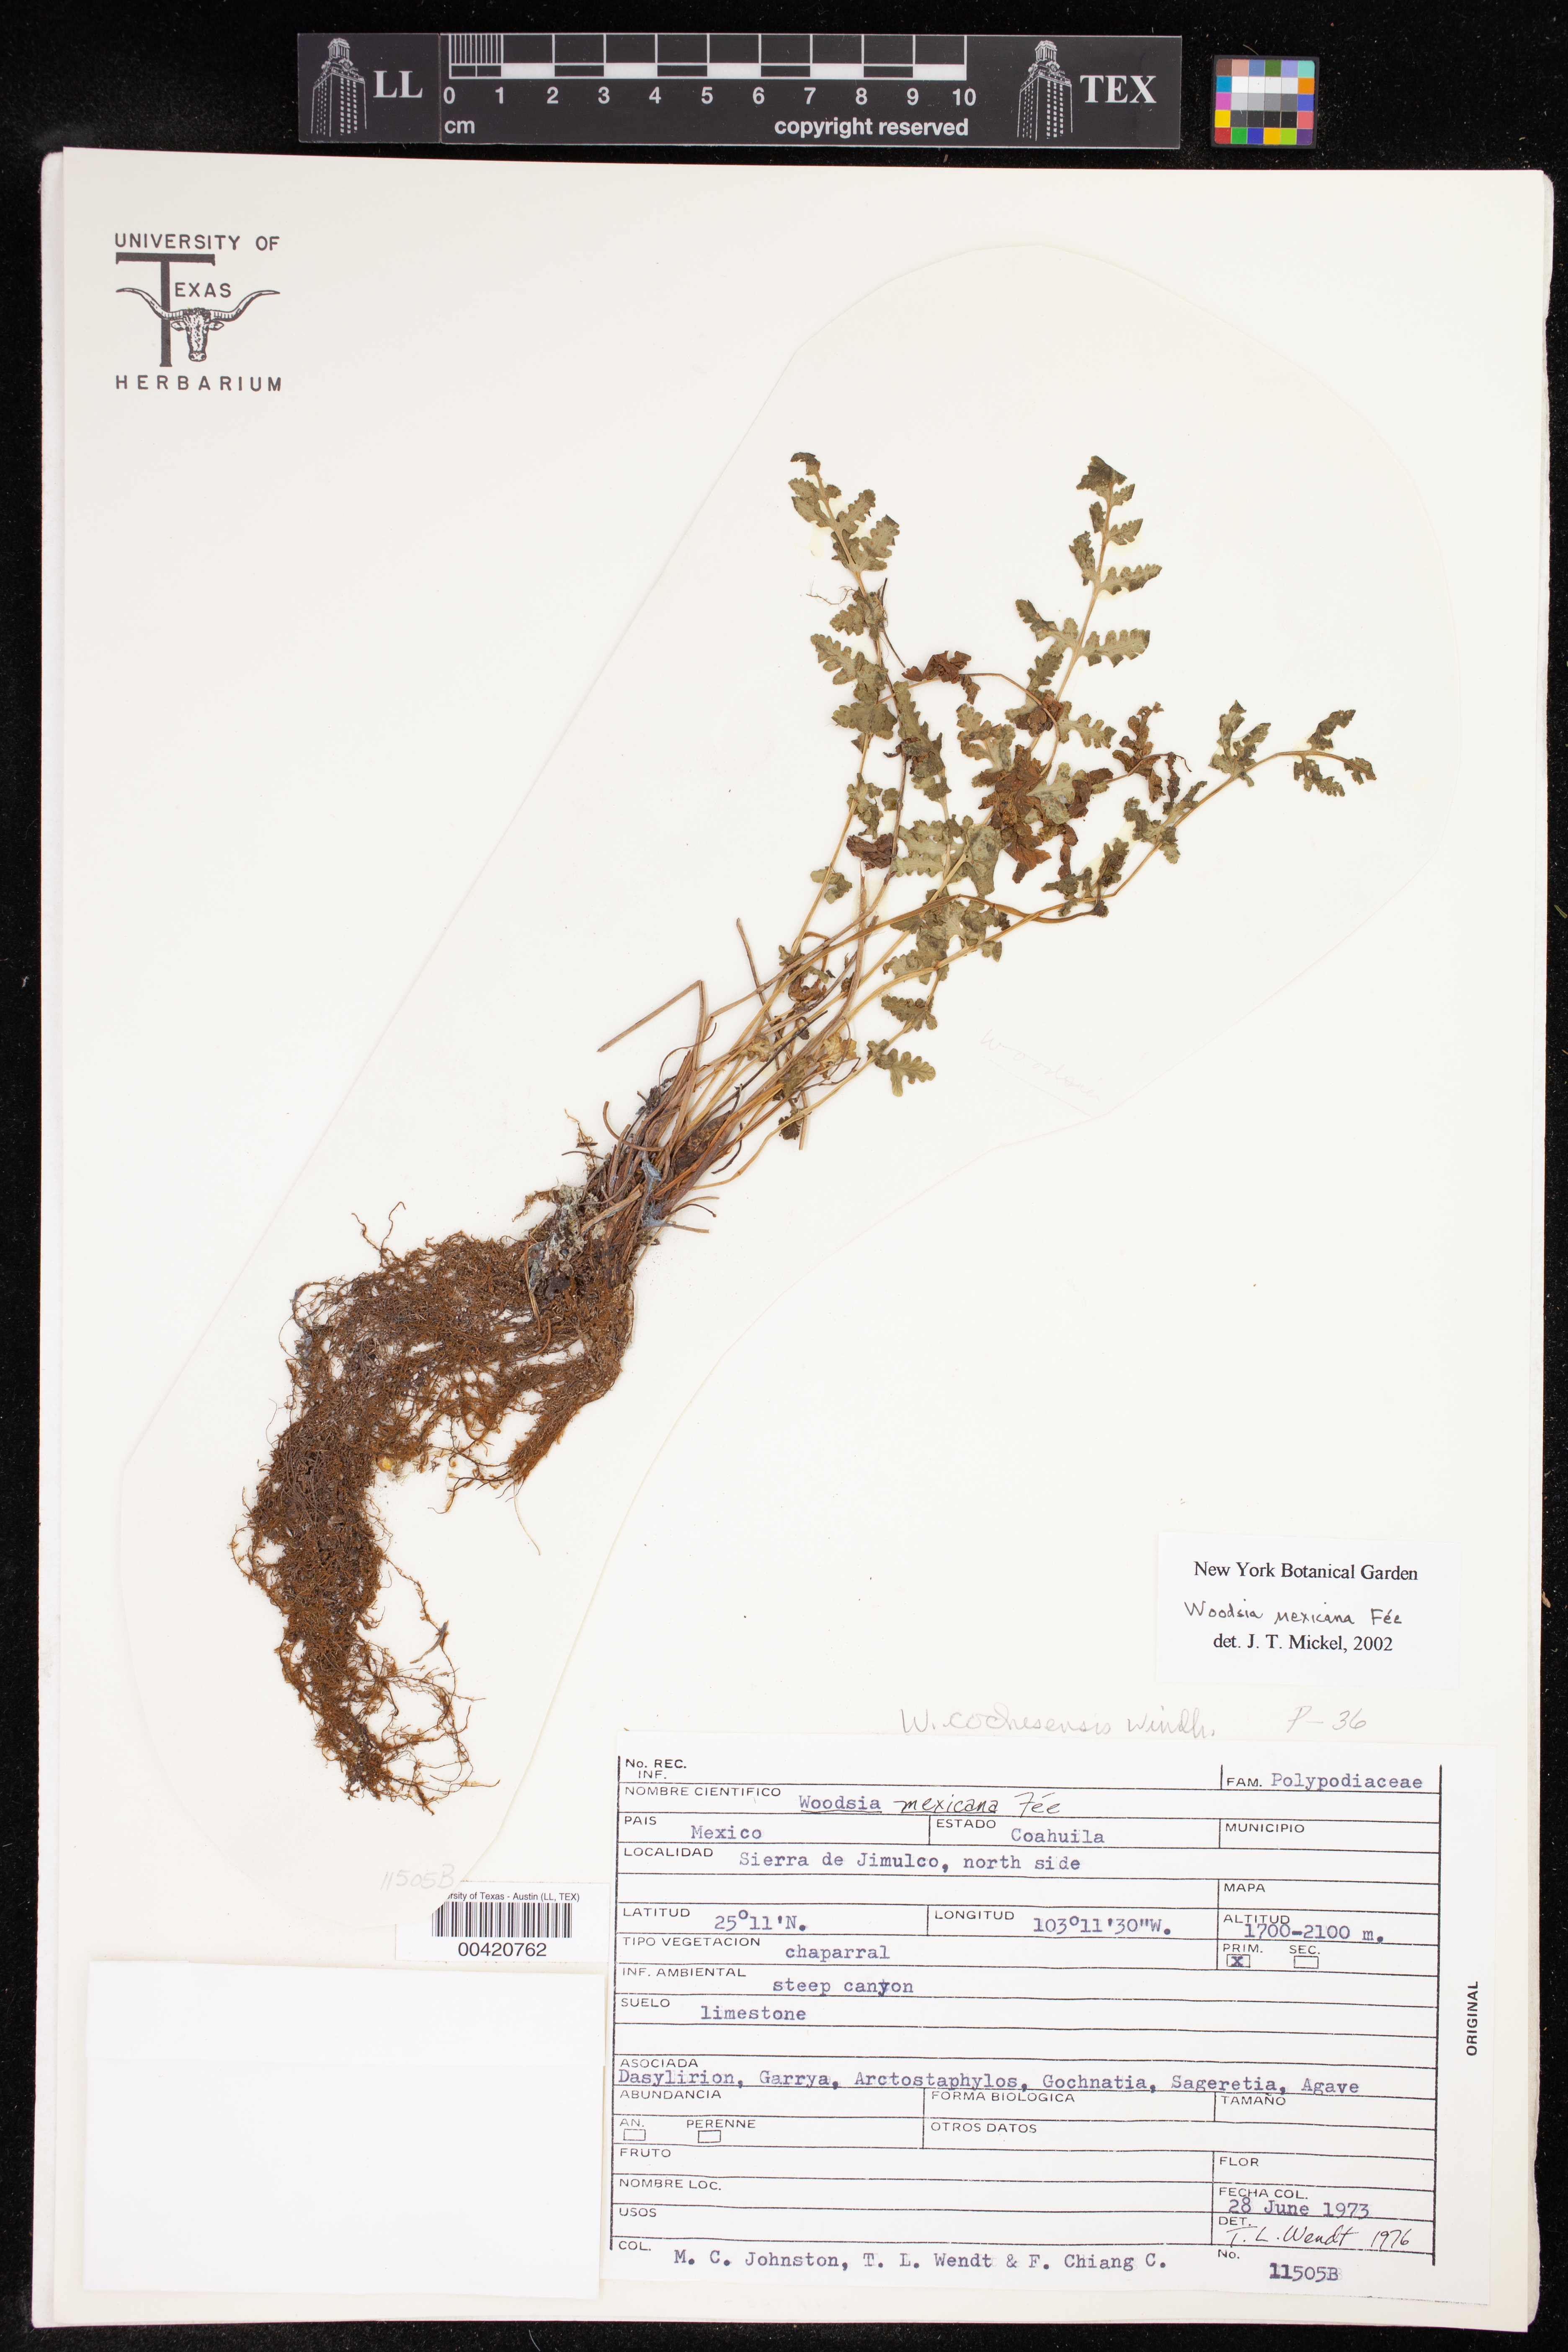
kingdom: Plantae
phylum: Tracheophyta
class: Polypodiopsida
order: Polypodiales
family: Woodsiaceae
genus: Physematium
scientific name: Physematium
